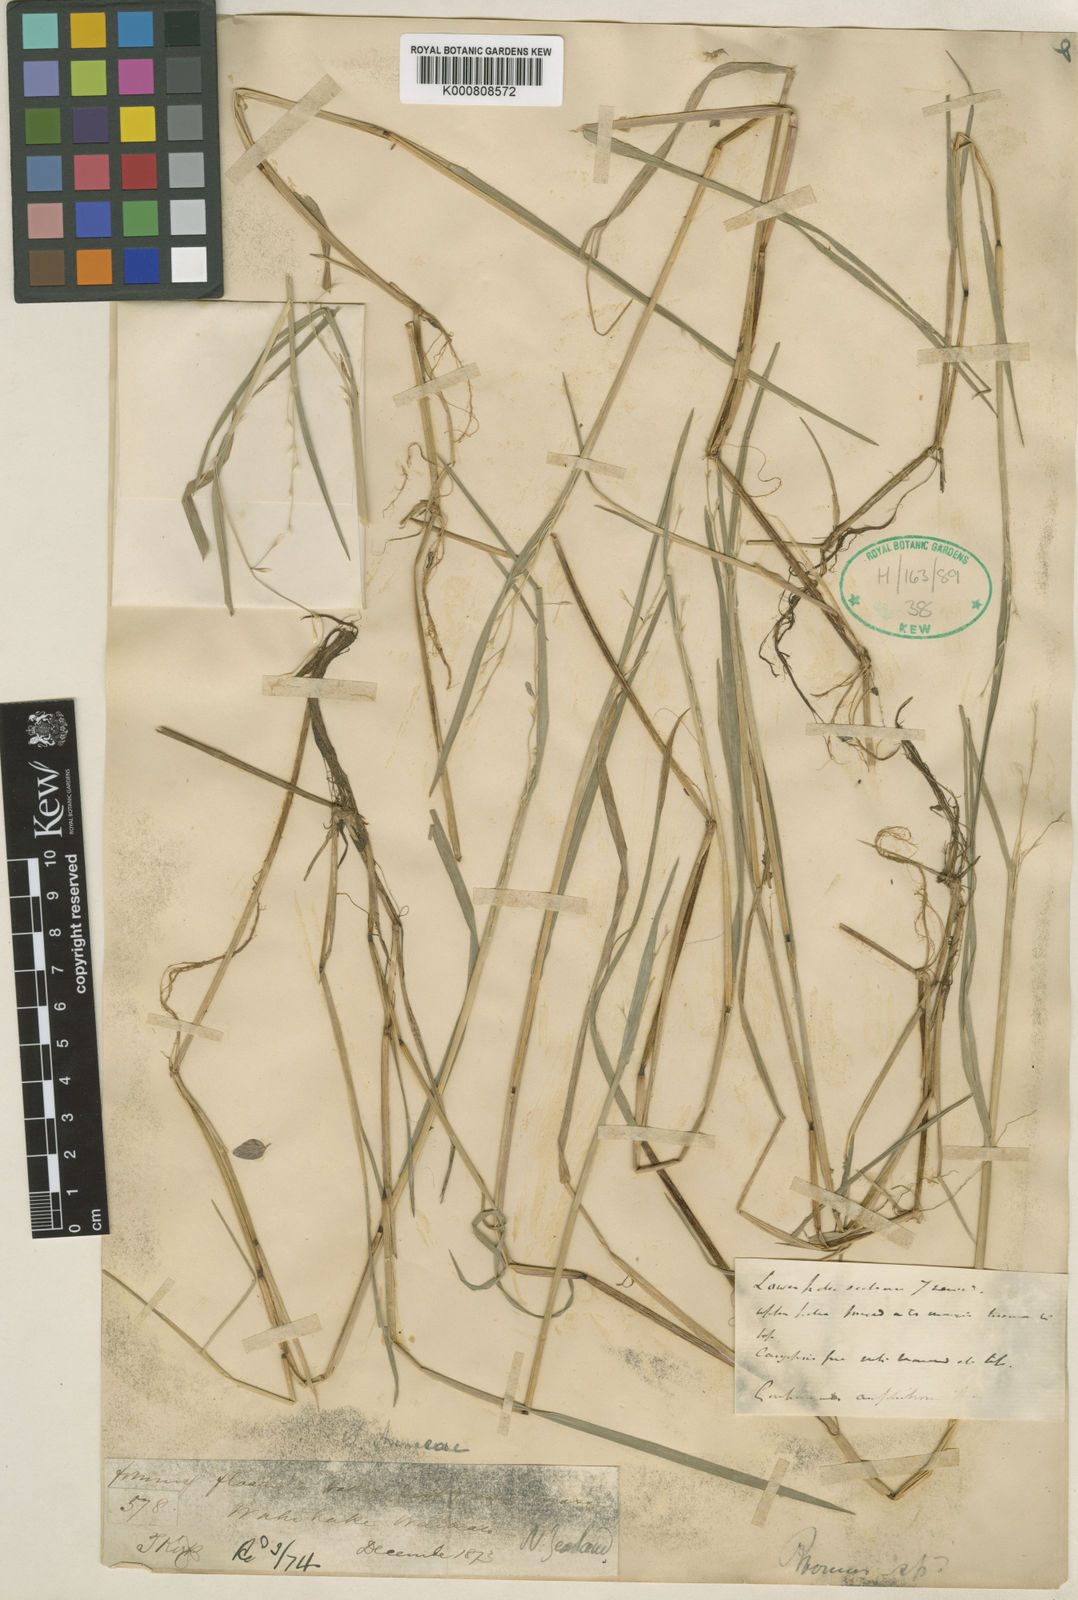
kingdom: Plantae
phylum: Tracheophyta
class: Liliopsida
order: Poales
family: Poaceae
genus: Helictotrichon
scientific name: Helictotrichon
